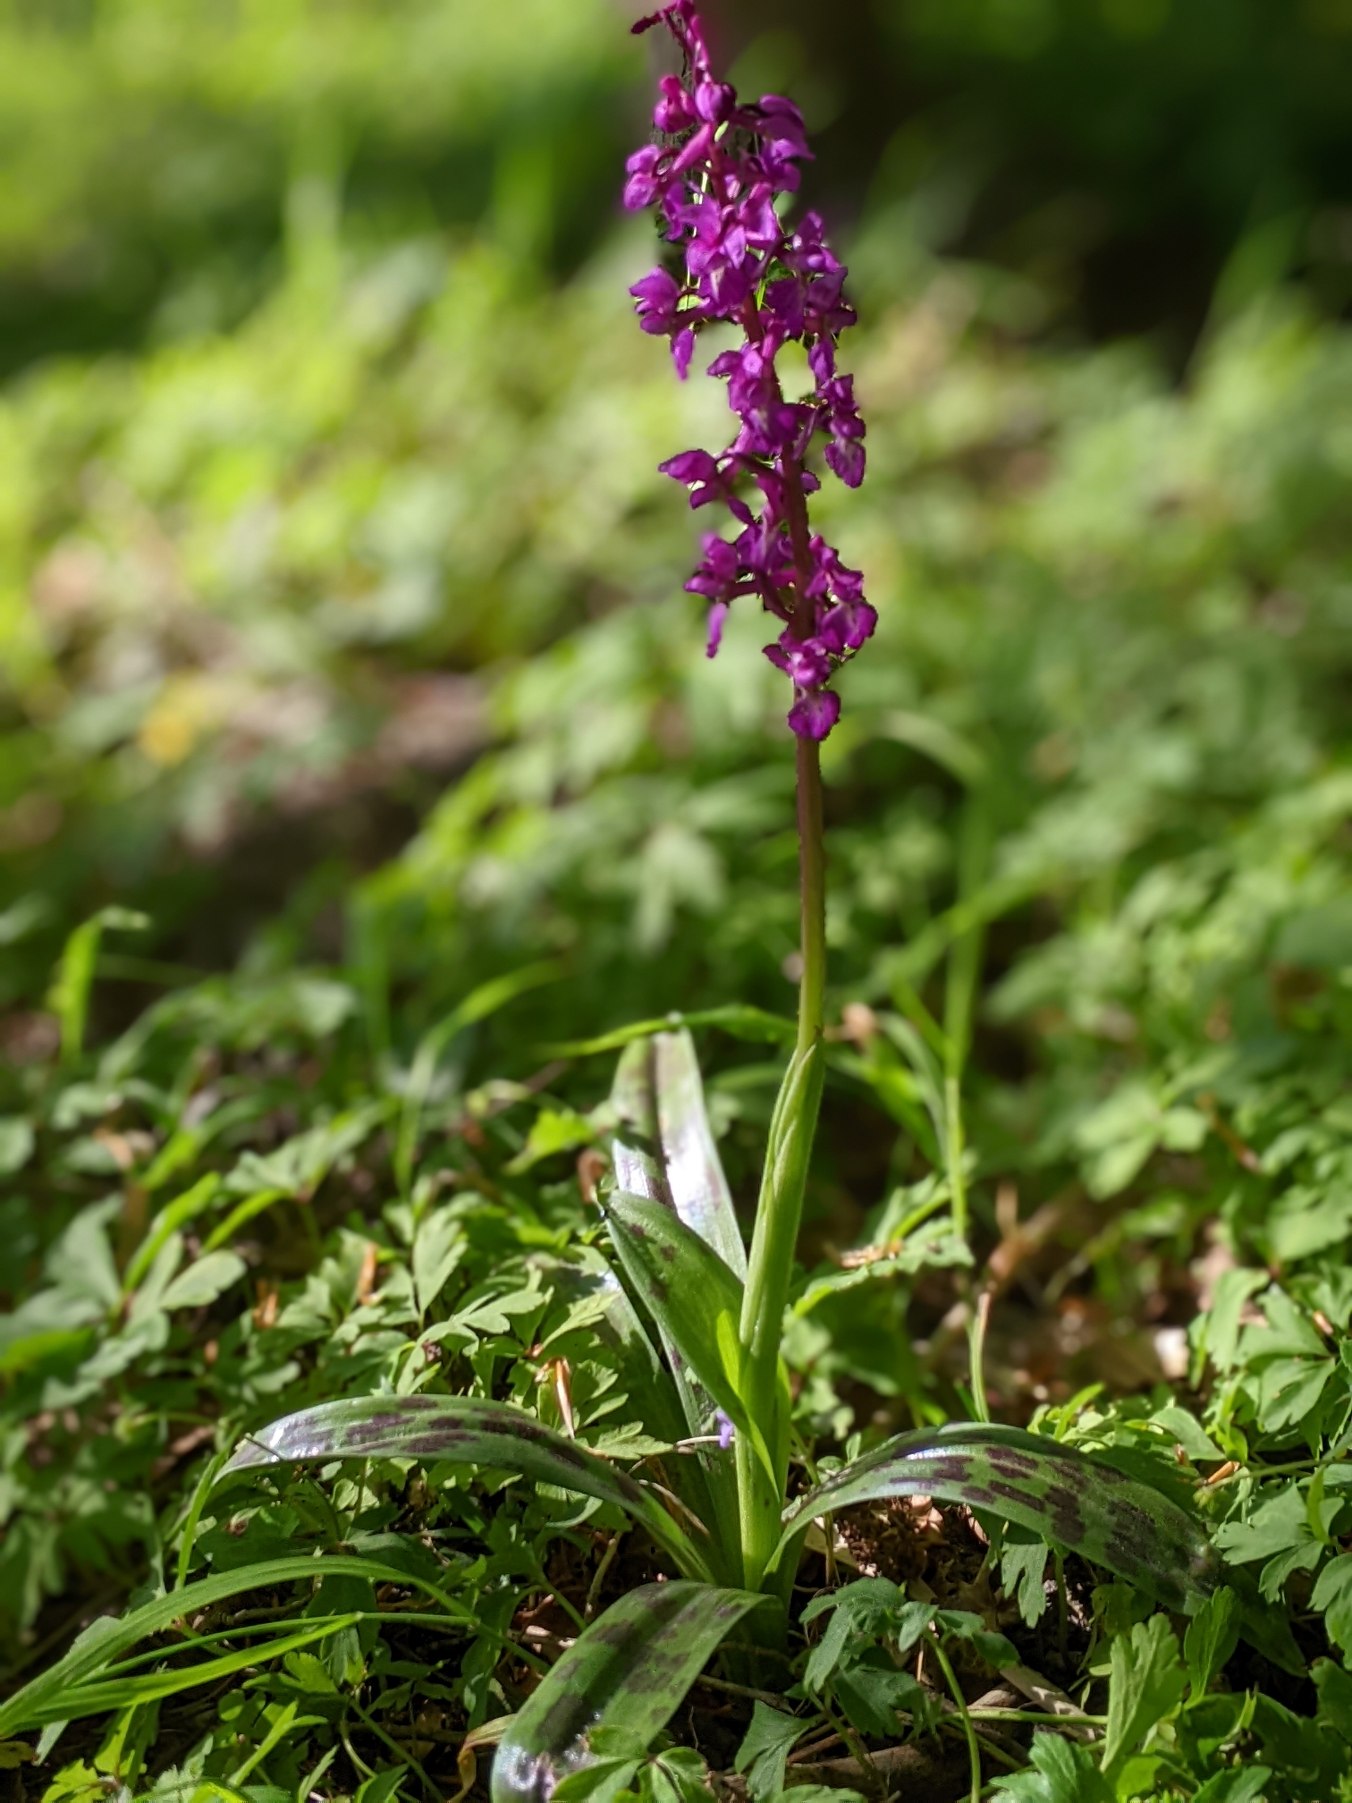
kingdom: Plantae
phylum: Tracheophyta
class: Liliopsida
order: Asparagales
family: Orchidaceae
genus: Orchis
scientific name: Orchis mascula
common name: Tyndakset gøgeurt
